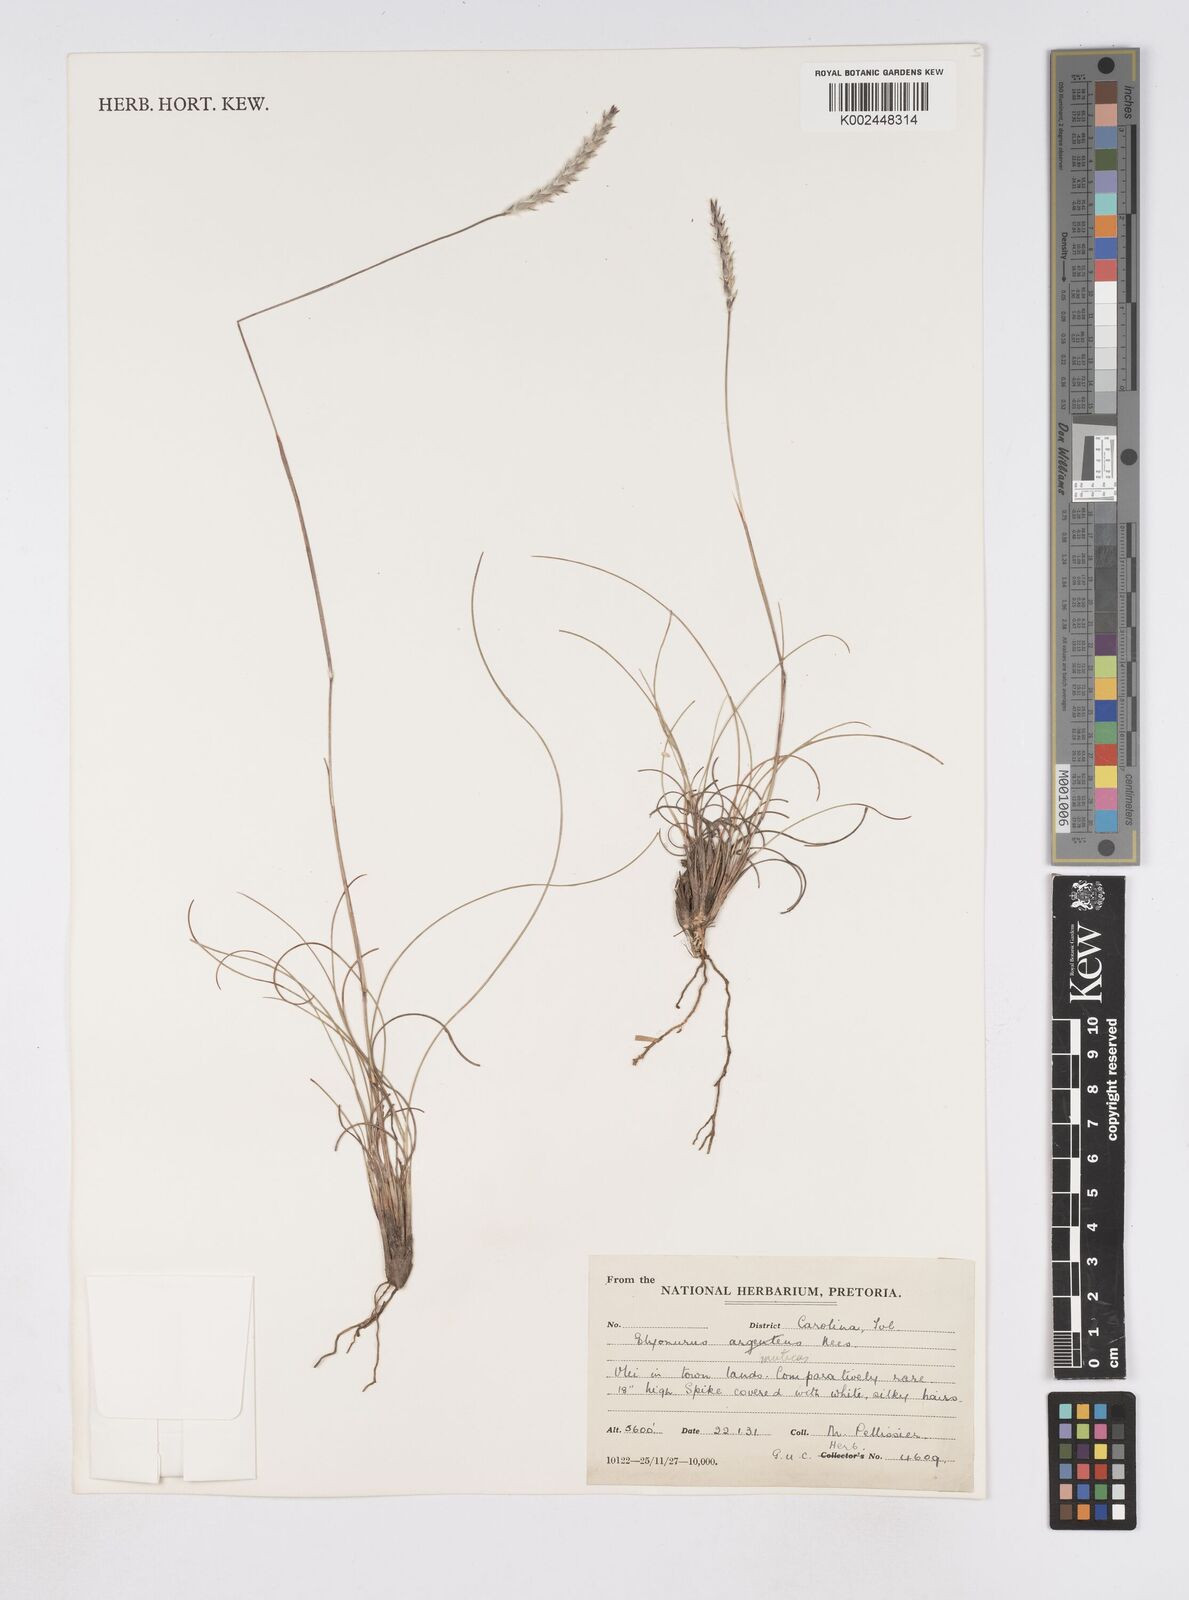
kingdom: Plantae
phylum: Tracheophyta
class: Liliopsida
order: Poales
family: Poaceae
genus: Elionurus
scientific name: Elionurus muticus
